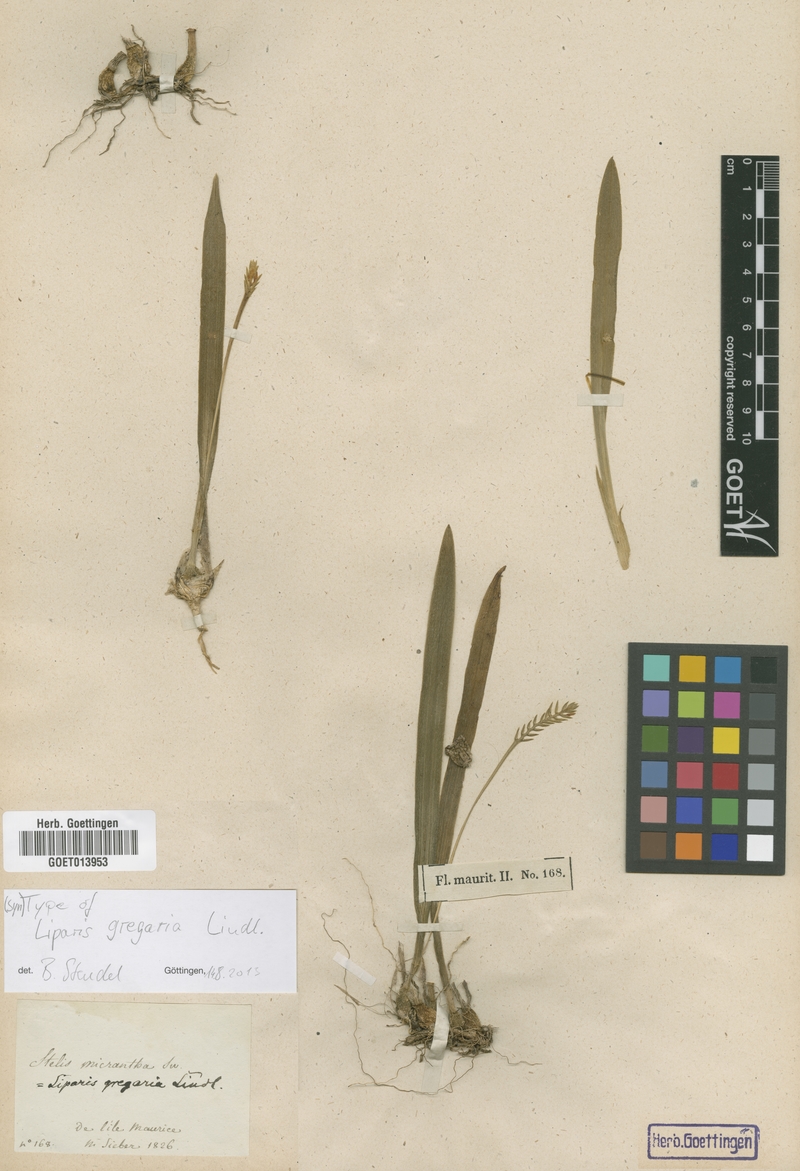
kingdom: Plantae
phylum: Tracheophyta
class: Liliopsida
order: Asparagales
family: Orchidaceae
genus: Stichorkis
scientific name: Stichorkis distichis
